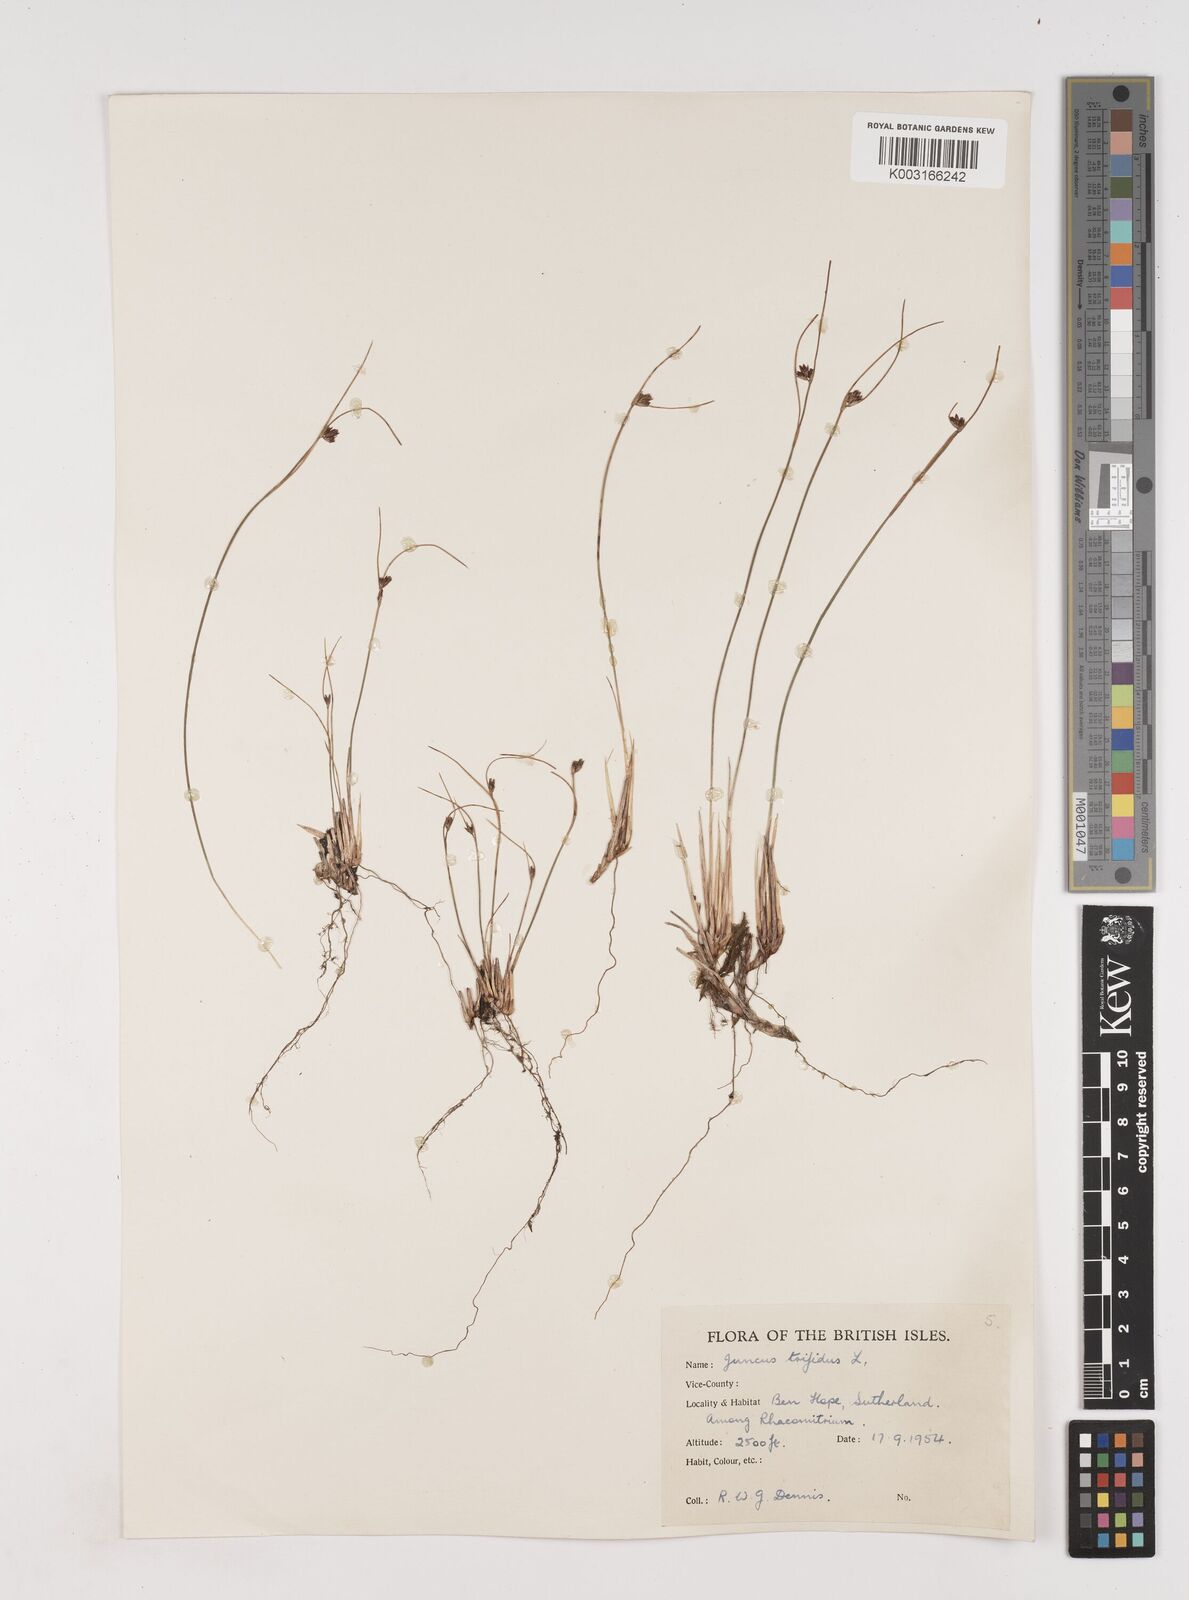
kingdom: Plantae
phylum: Tracheophyta
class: Liliopsida
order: Poales
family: Juncaceae
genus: Oreojuncus
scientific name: Oreojuncus trifidus
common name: Highland rush
